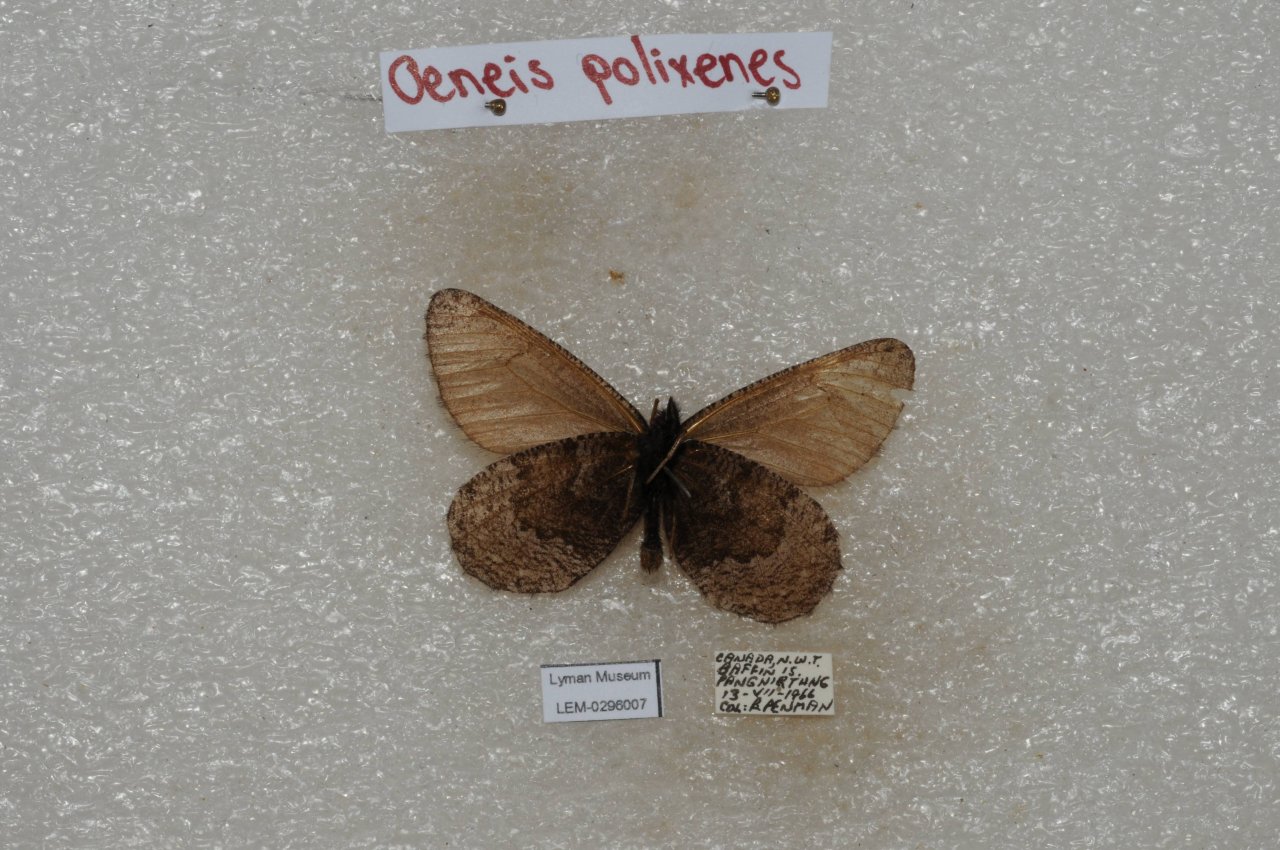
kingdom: Animalia
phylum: Arthropoda
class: Insecta
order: Lepidoptera
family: Nymphalidae
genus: Oeneis
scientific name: Oeneis bore
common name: Polixenes Arctic
